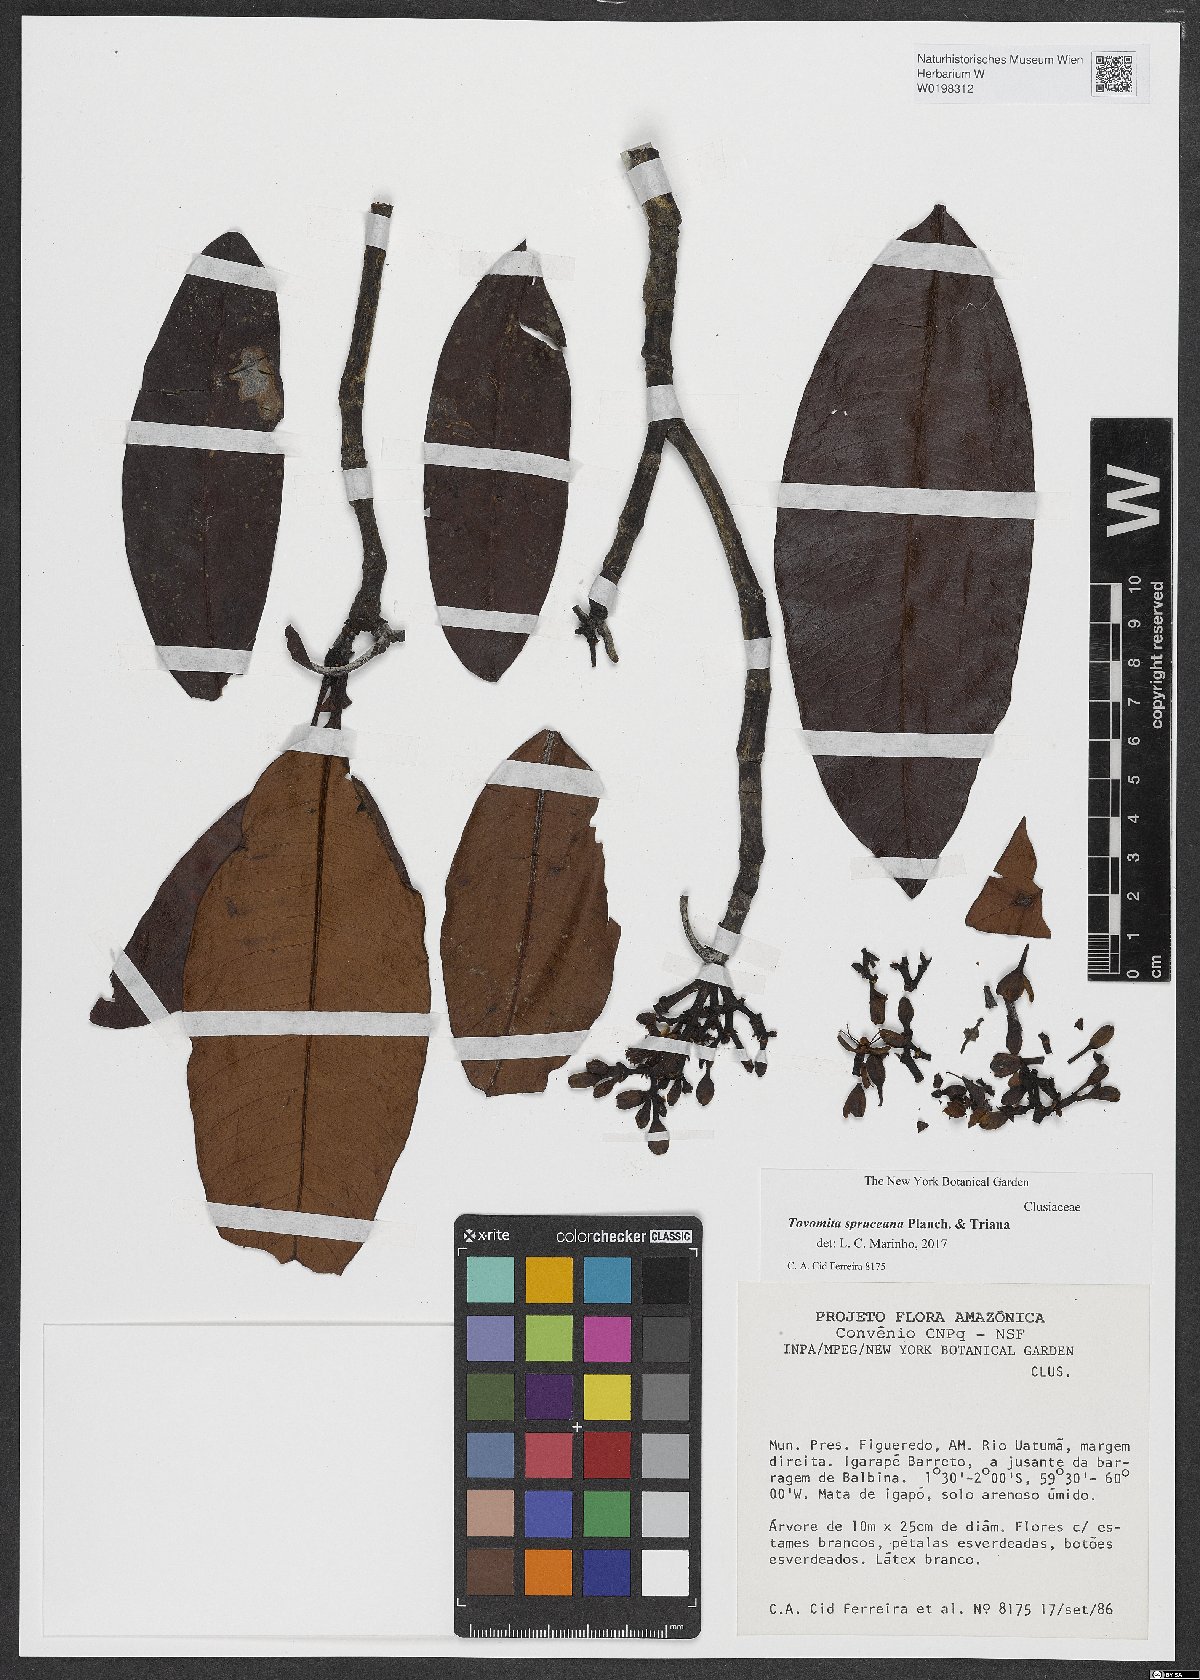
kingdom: Plantae
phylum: Tracheophyta
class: Magnoliopsida
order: Malpighiales
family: Clusiaceae
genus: Tovomita
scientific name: Tovomita spruceana
